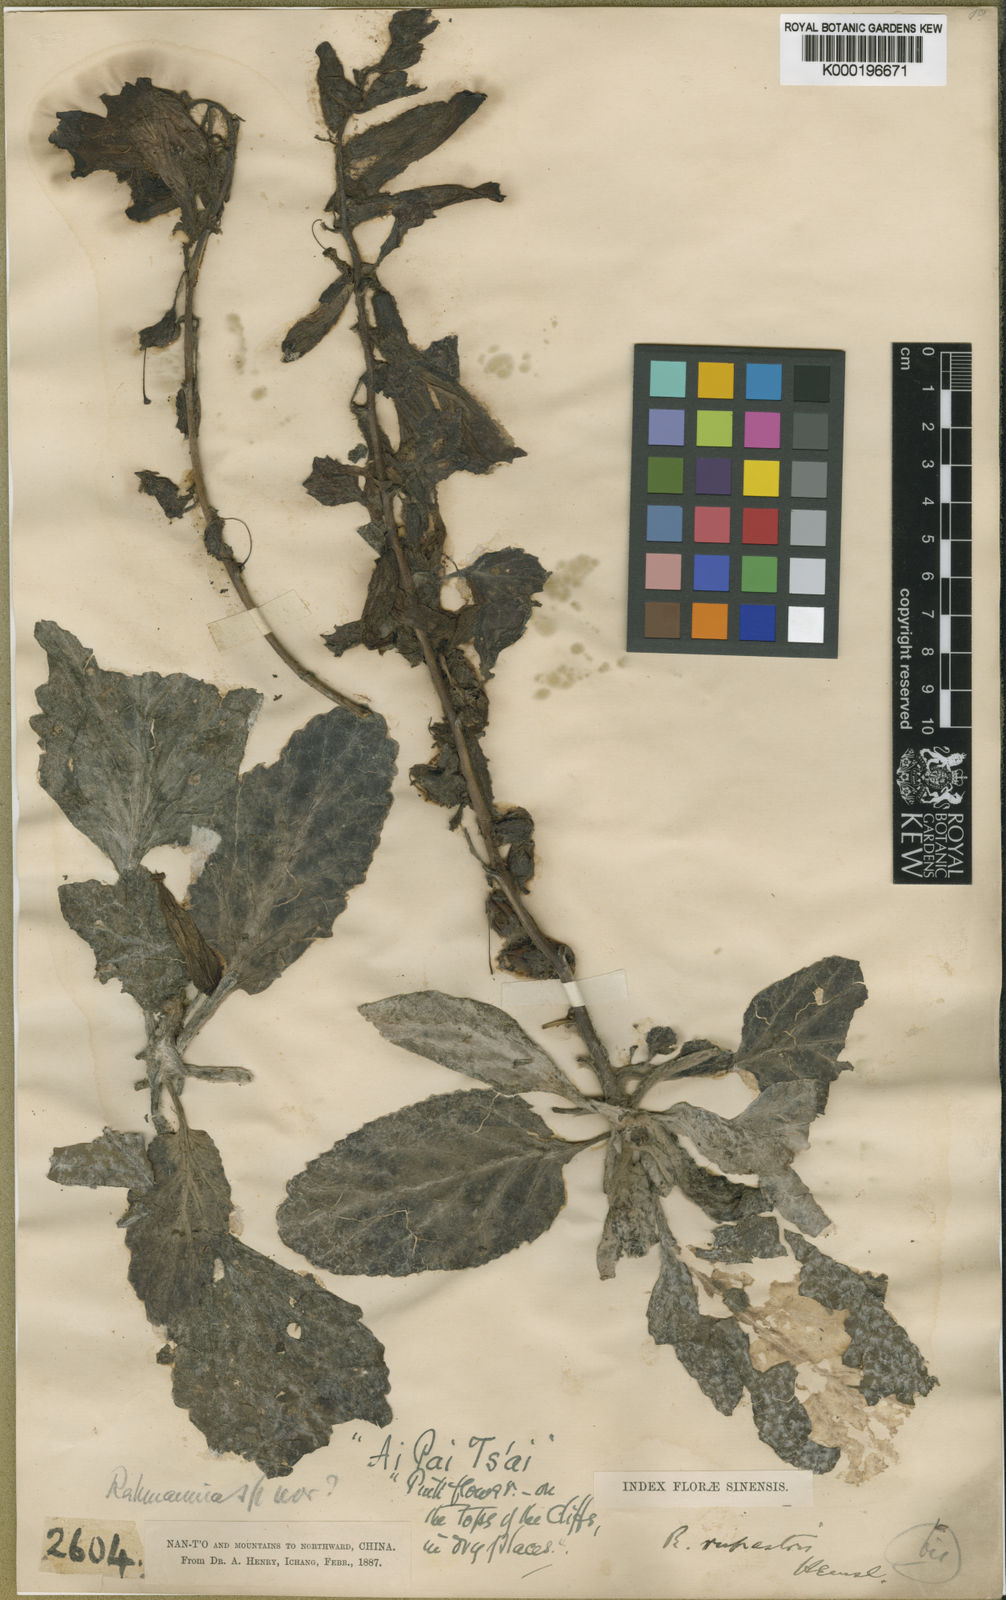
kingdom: Plantae
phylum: Tracheophyta
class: Magnoliopsida
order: Lamiales
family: Rehmanniaceae
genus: Triaenophora
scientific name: Triaenophora rupestris
